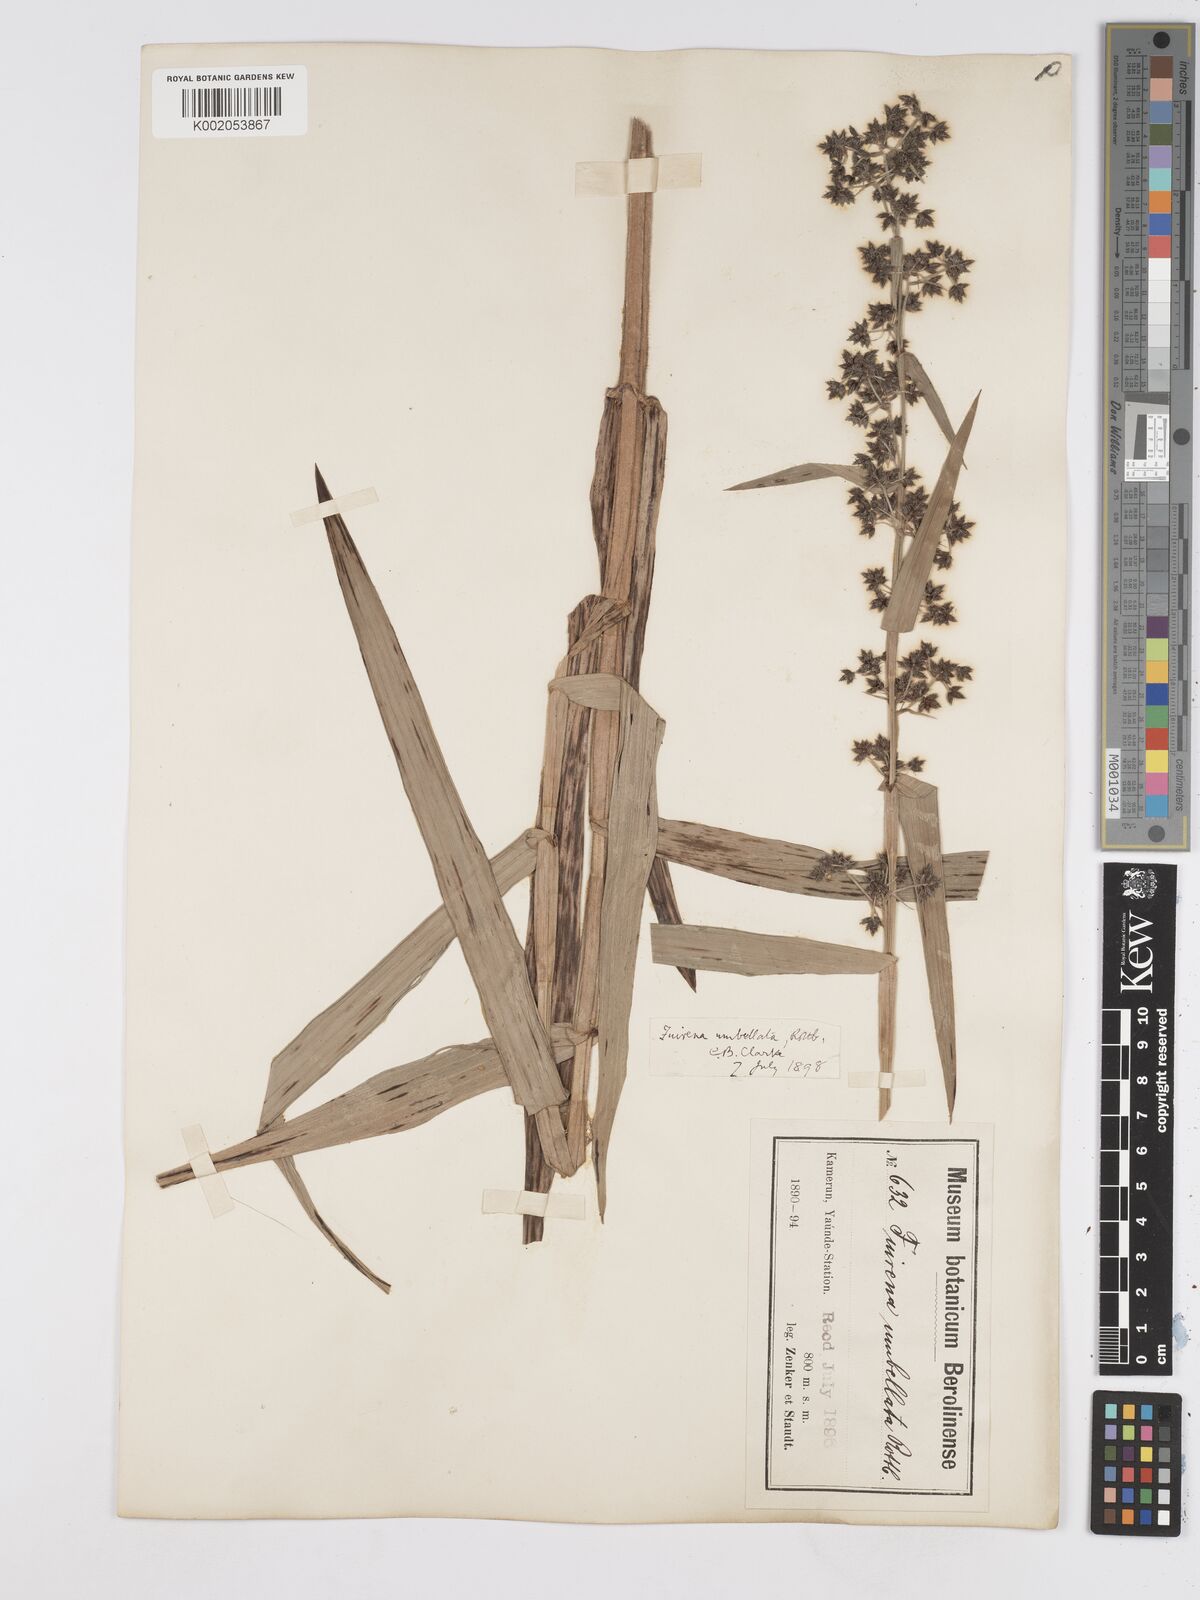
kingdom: Plantae
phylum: Tracheophyta
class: Liliopsida
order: Poales
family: Cyperaceae
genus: Fuirena
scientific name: Fuirena umbellata
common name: Yefen
